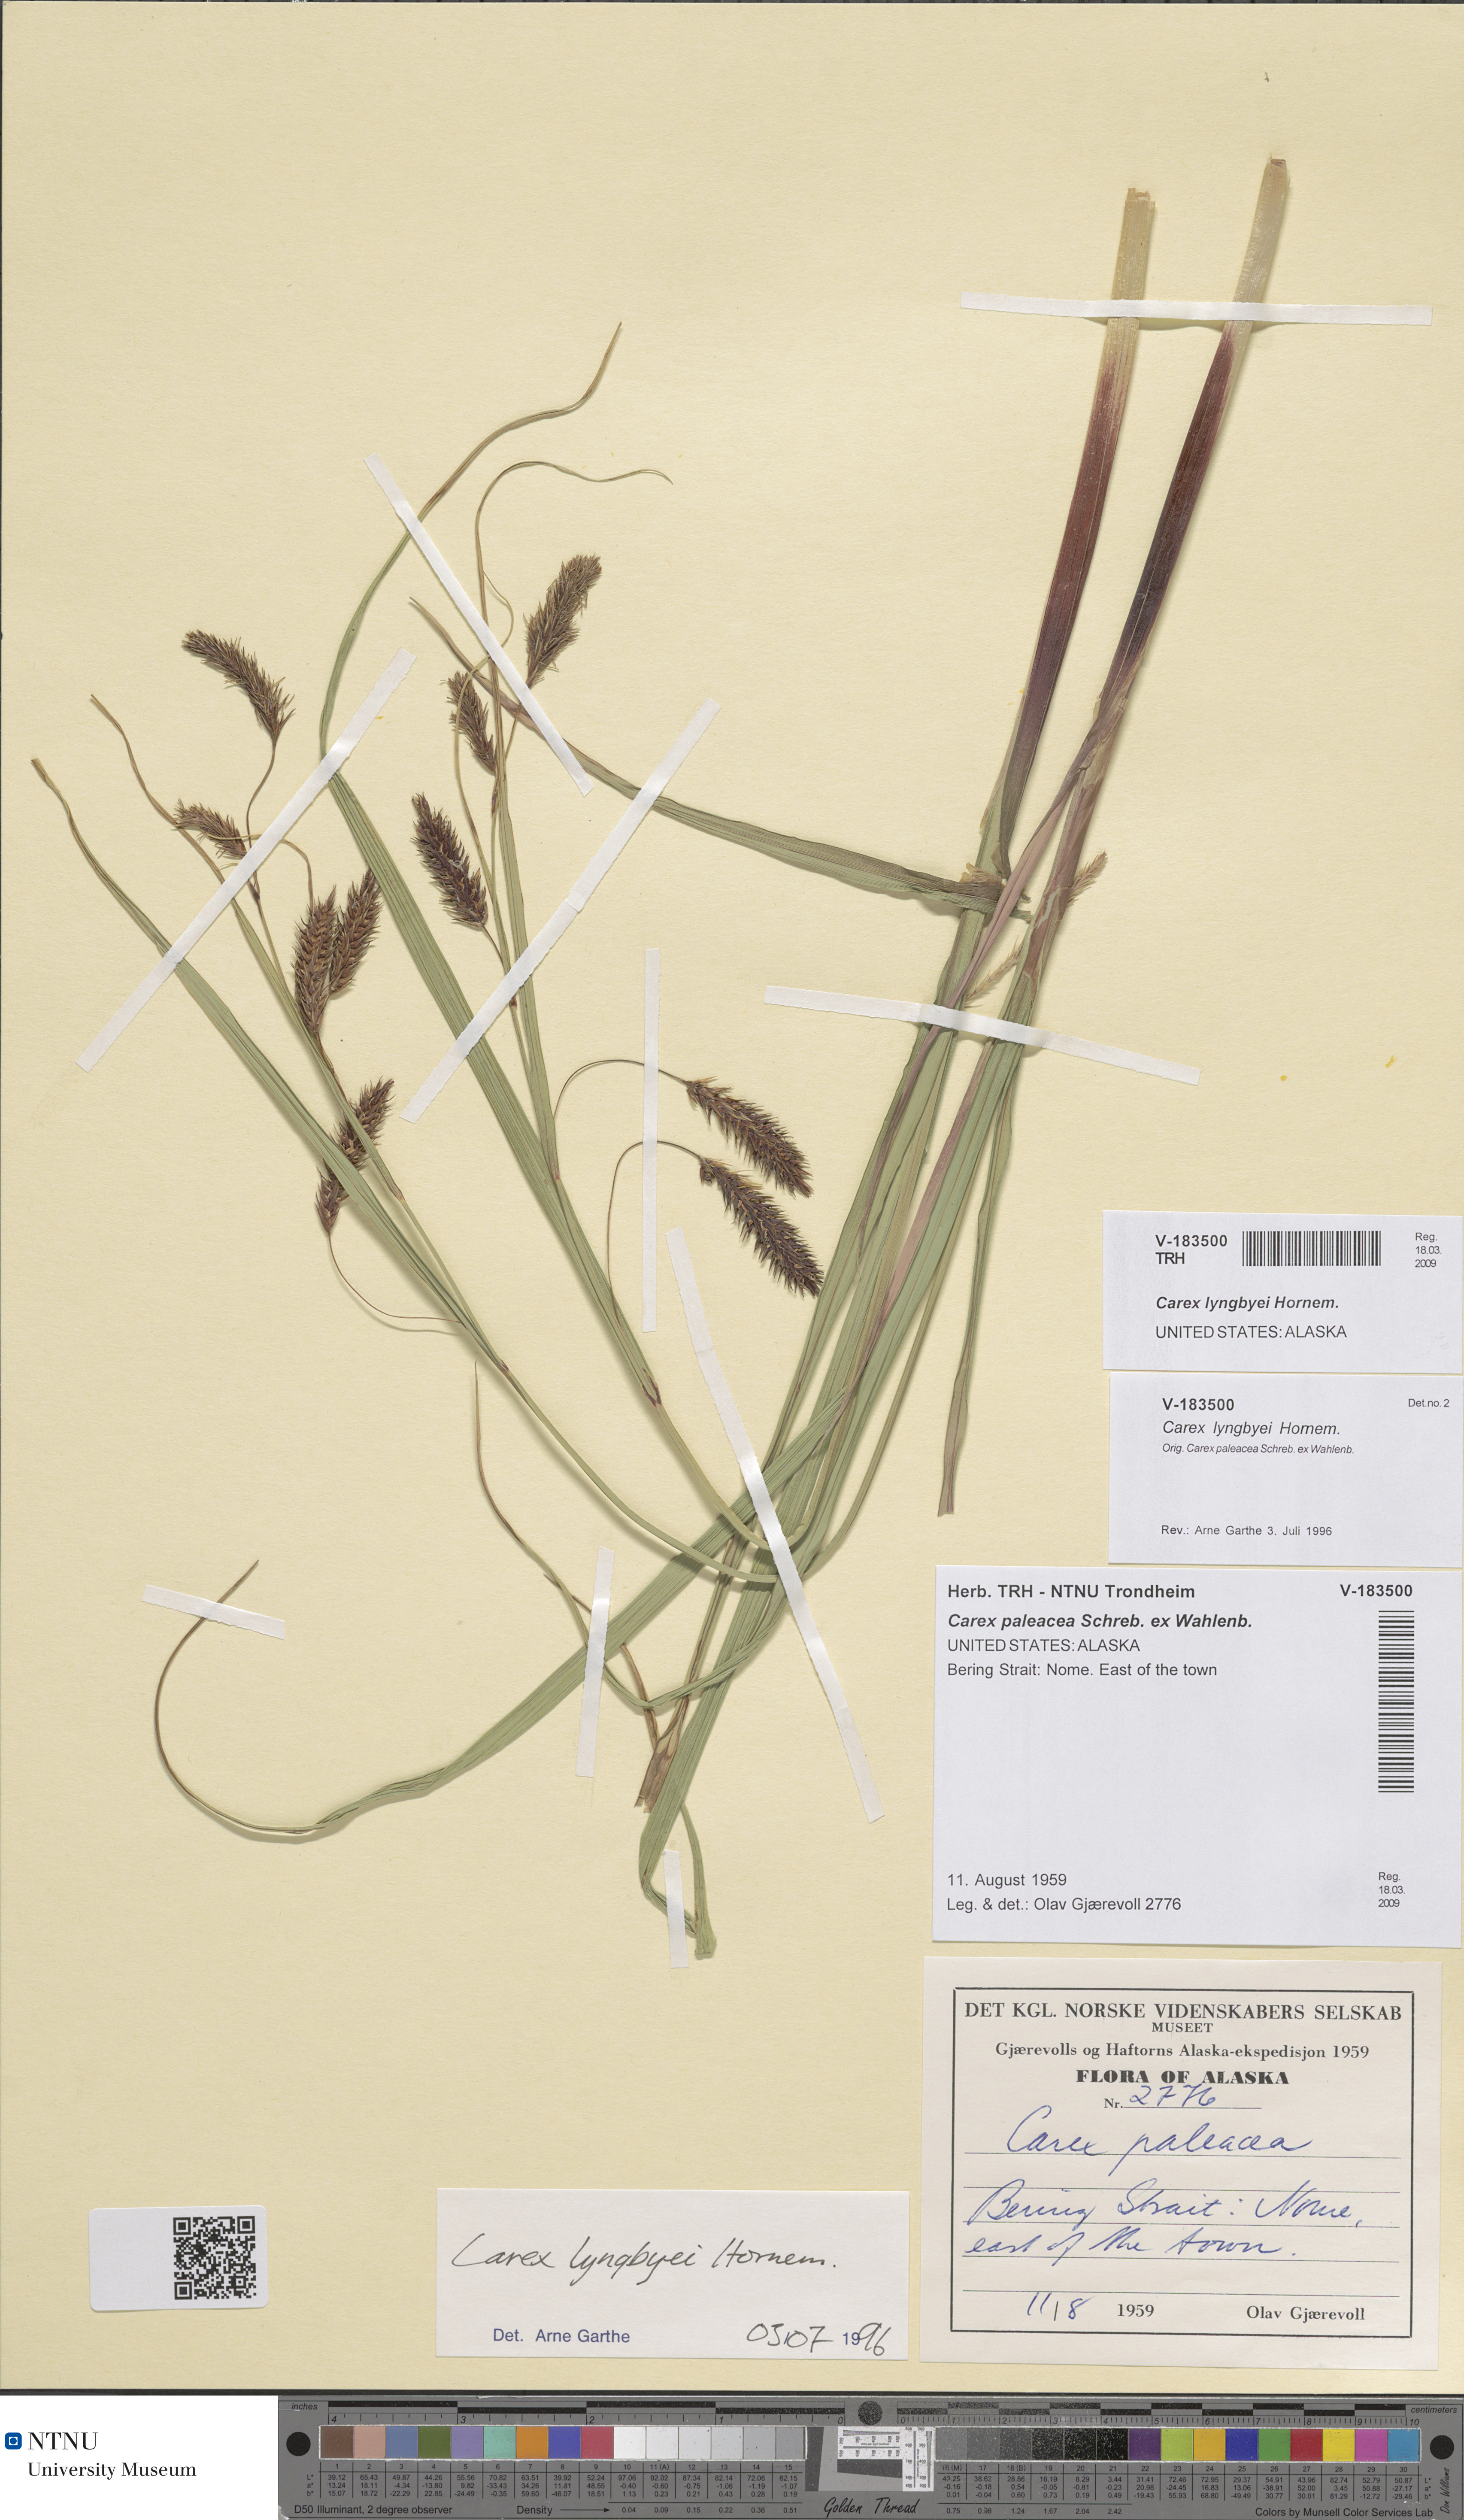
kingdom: Plantae
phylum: Tracheophyta
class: Liliopsida
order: Poales
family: Cyperaceae
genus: Carex
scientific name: Carex lyngbyei
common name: Lyngbye's sedge
